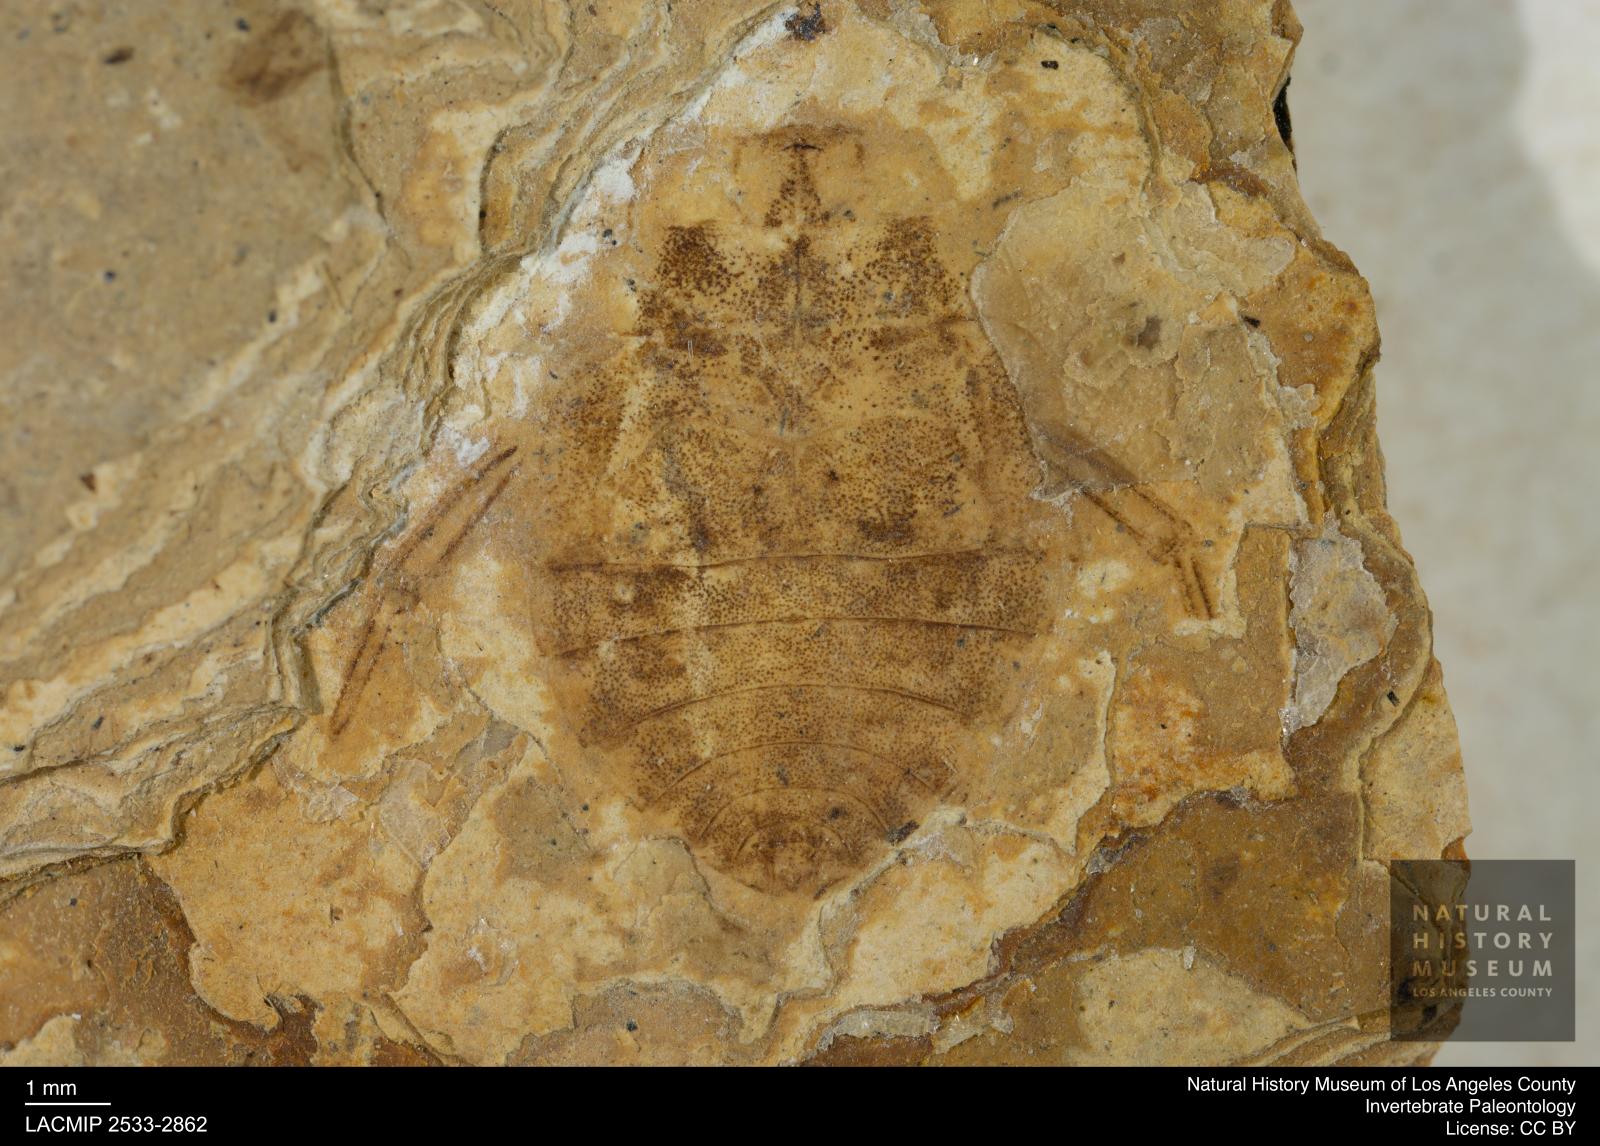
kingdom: Animalia
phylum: Arthropoda
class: Insecta
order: Hemiptera
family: Naucoridae
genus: Naucoris
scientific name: Naucoris rottensis
